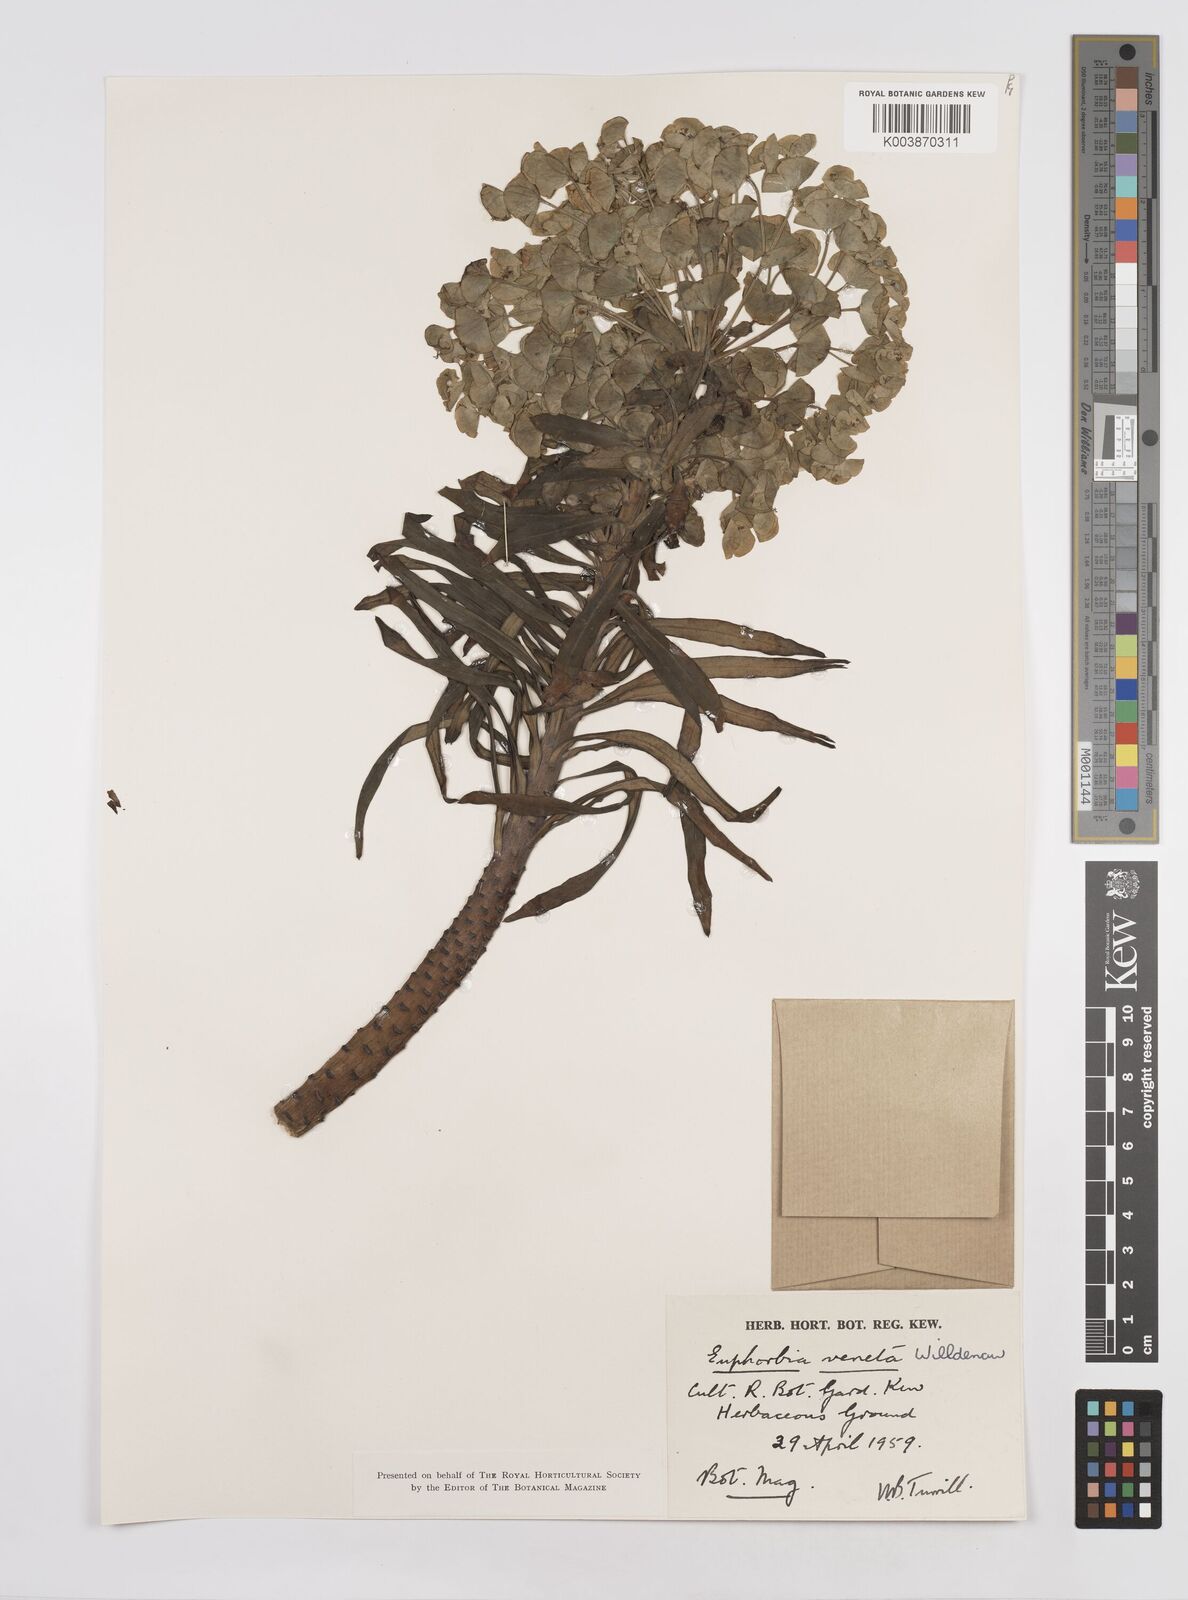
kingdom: Plantae
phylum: Tracheophyta
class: Magnoliopsida
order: Malpighiales
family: Euphorbiaceae
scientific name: Euphorbiaceae
